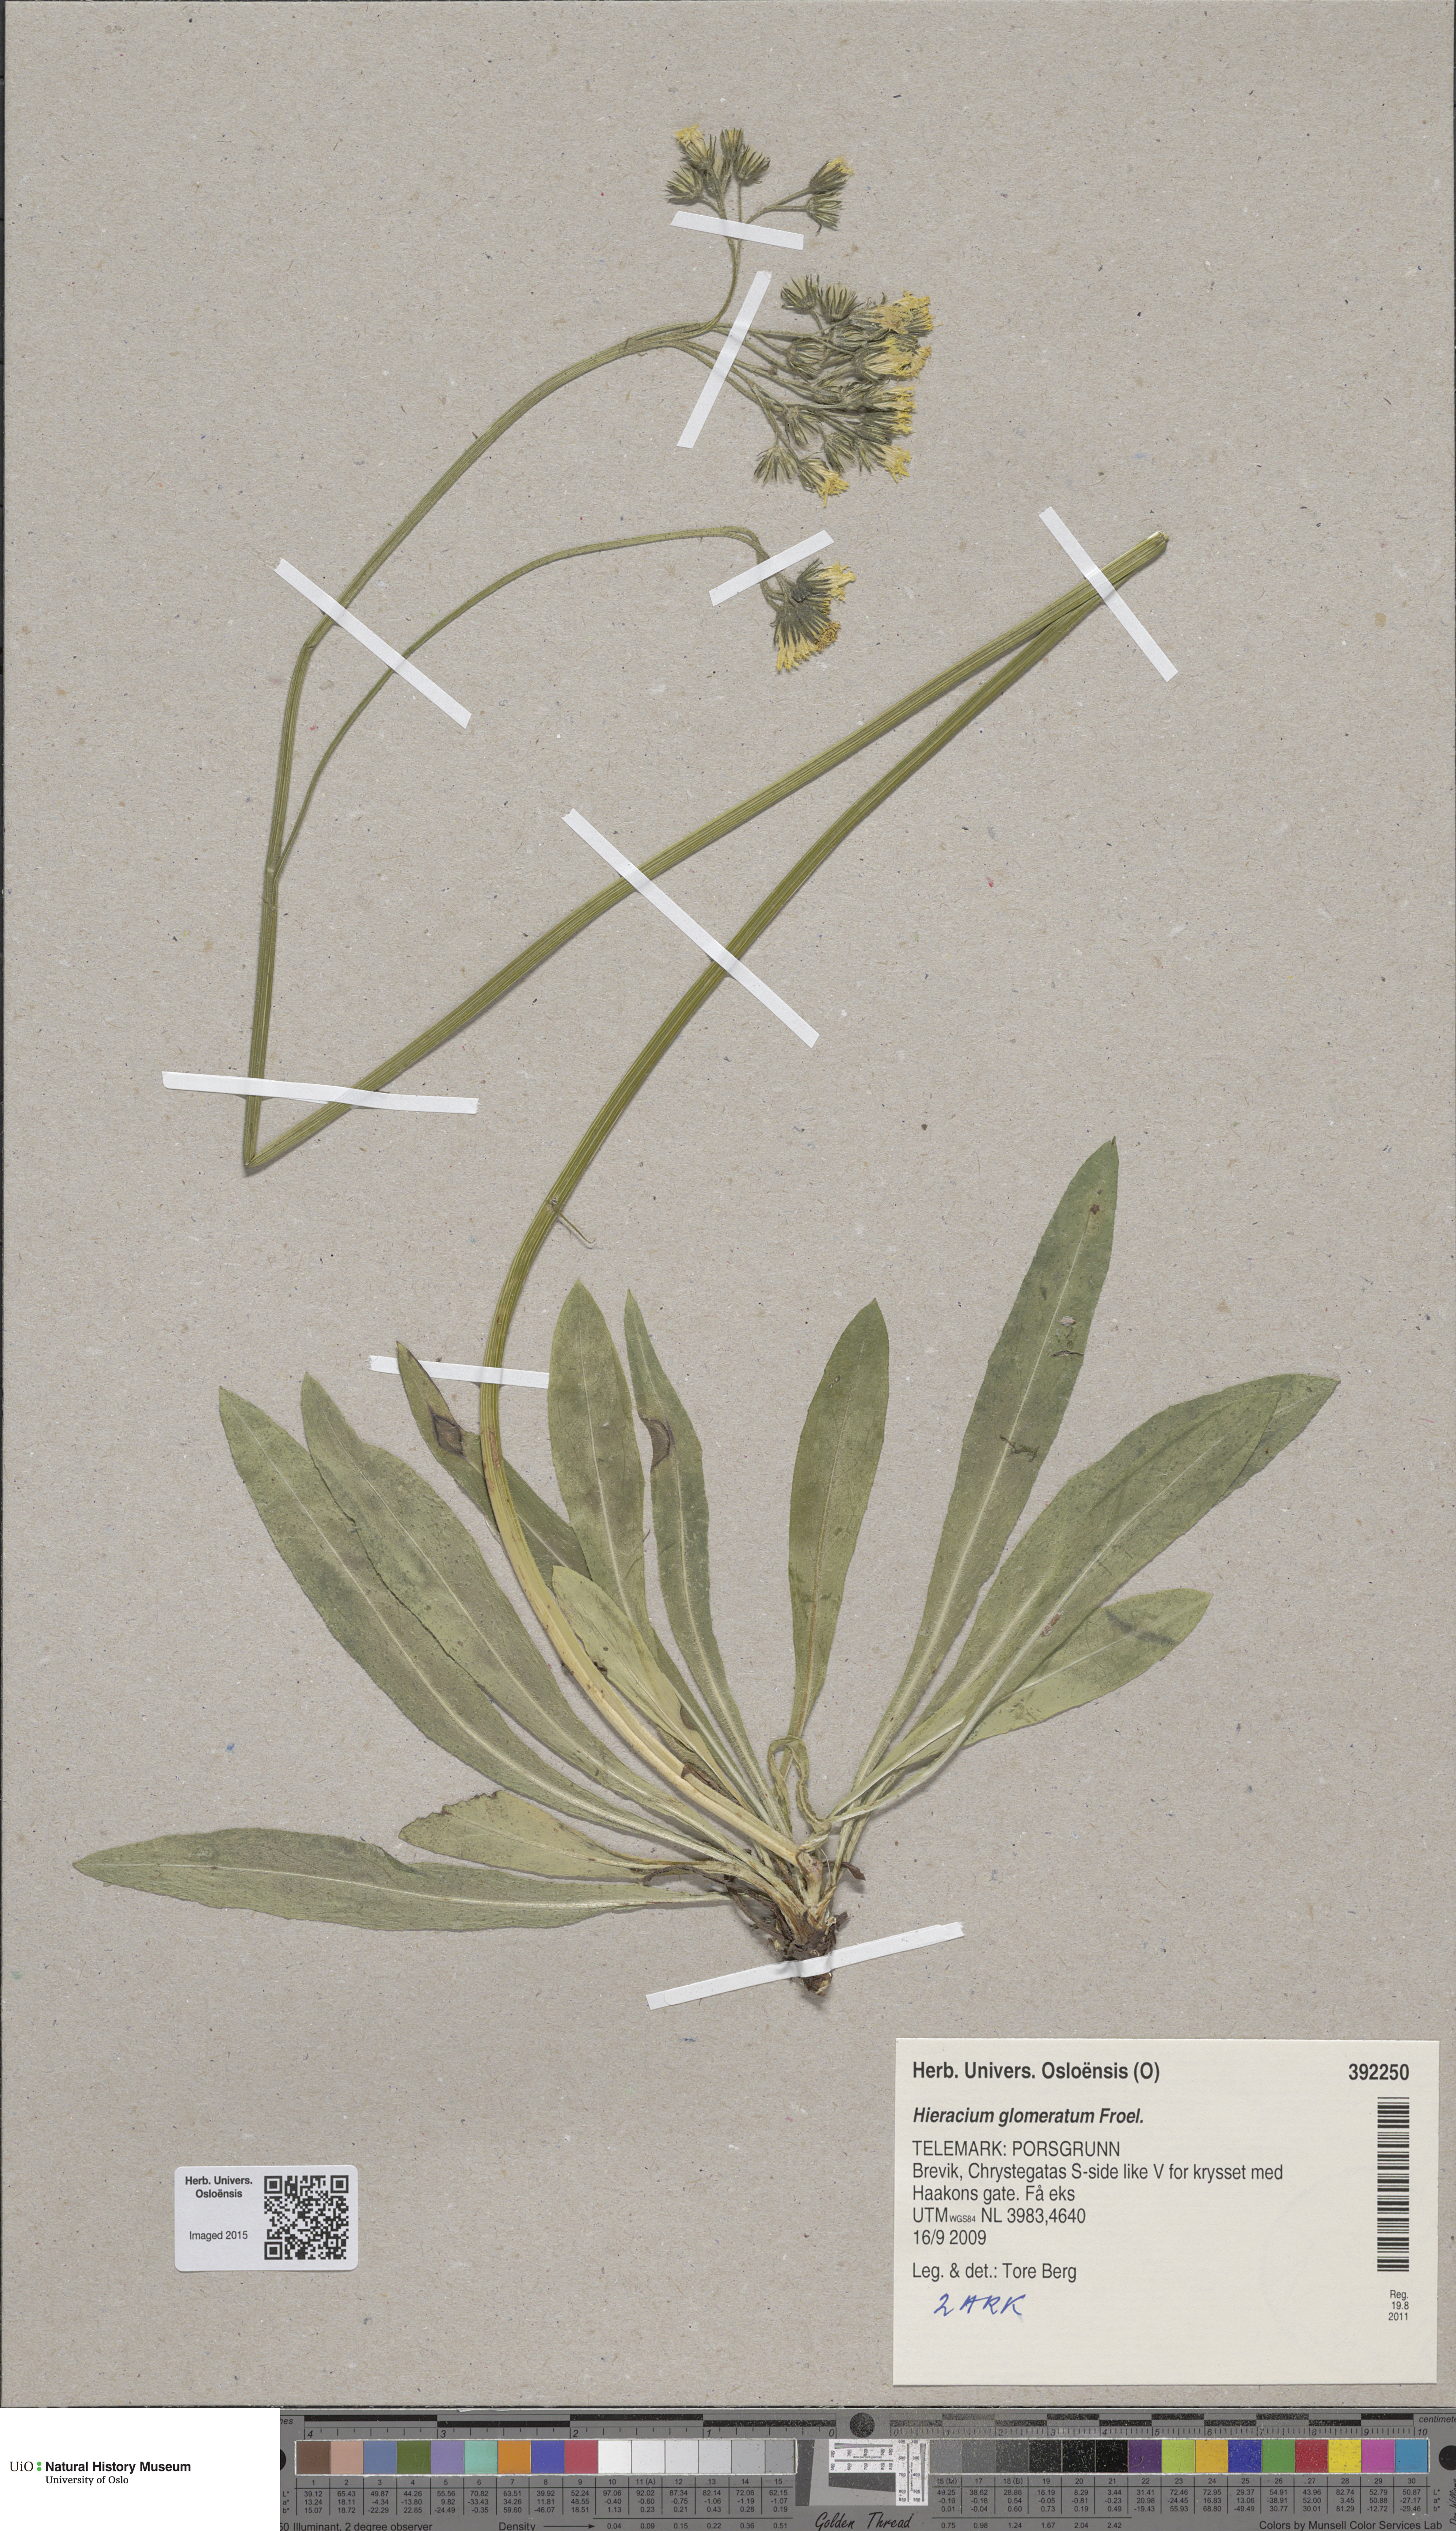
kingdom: Plantae
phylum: Tracheophyta
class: Magnoliopsida
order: Asterales
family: Asteraceae
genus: Pilosella
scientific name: Pilosella glomerata
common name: Queen devil hawkweed
